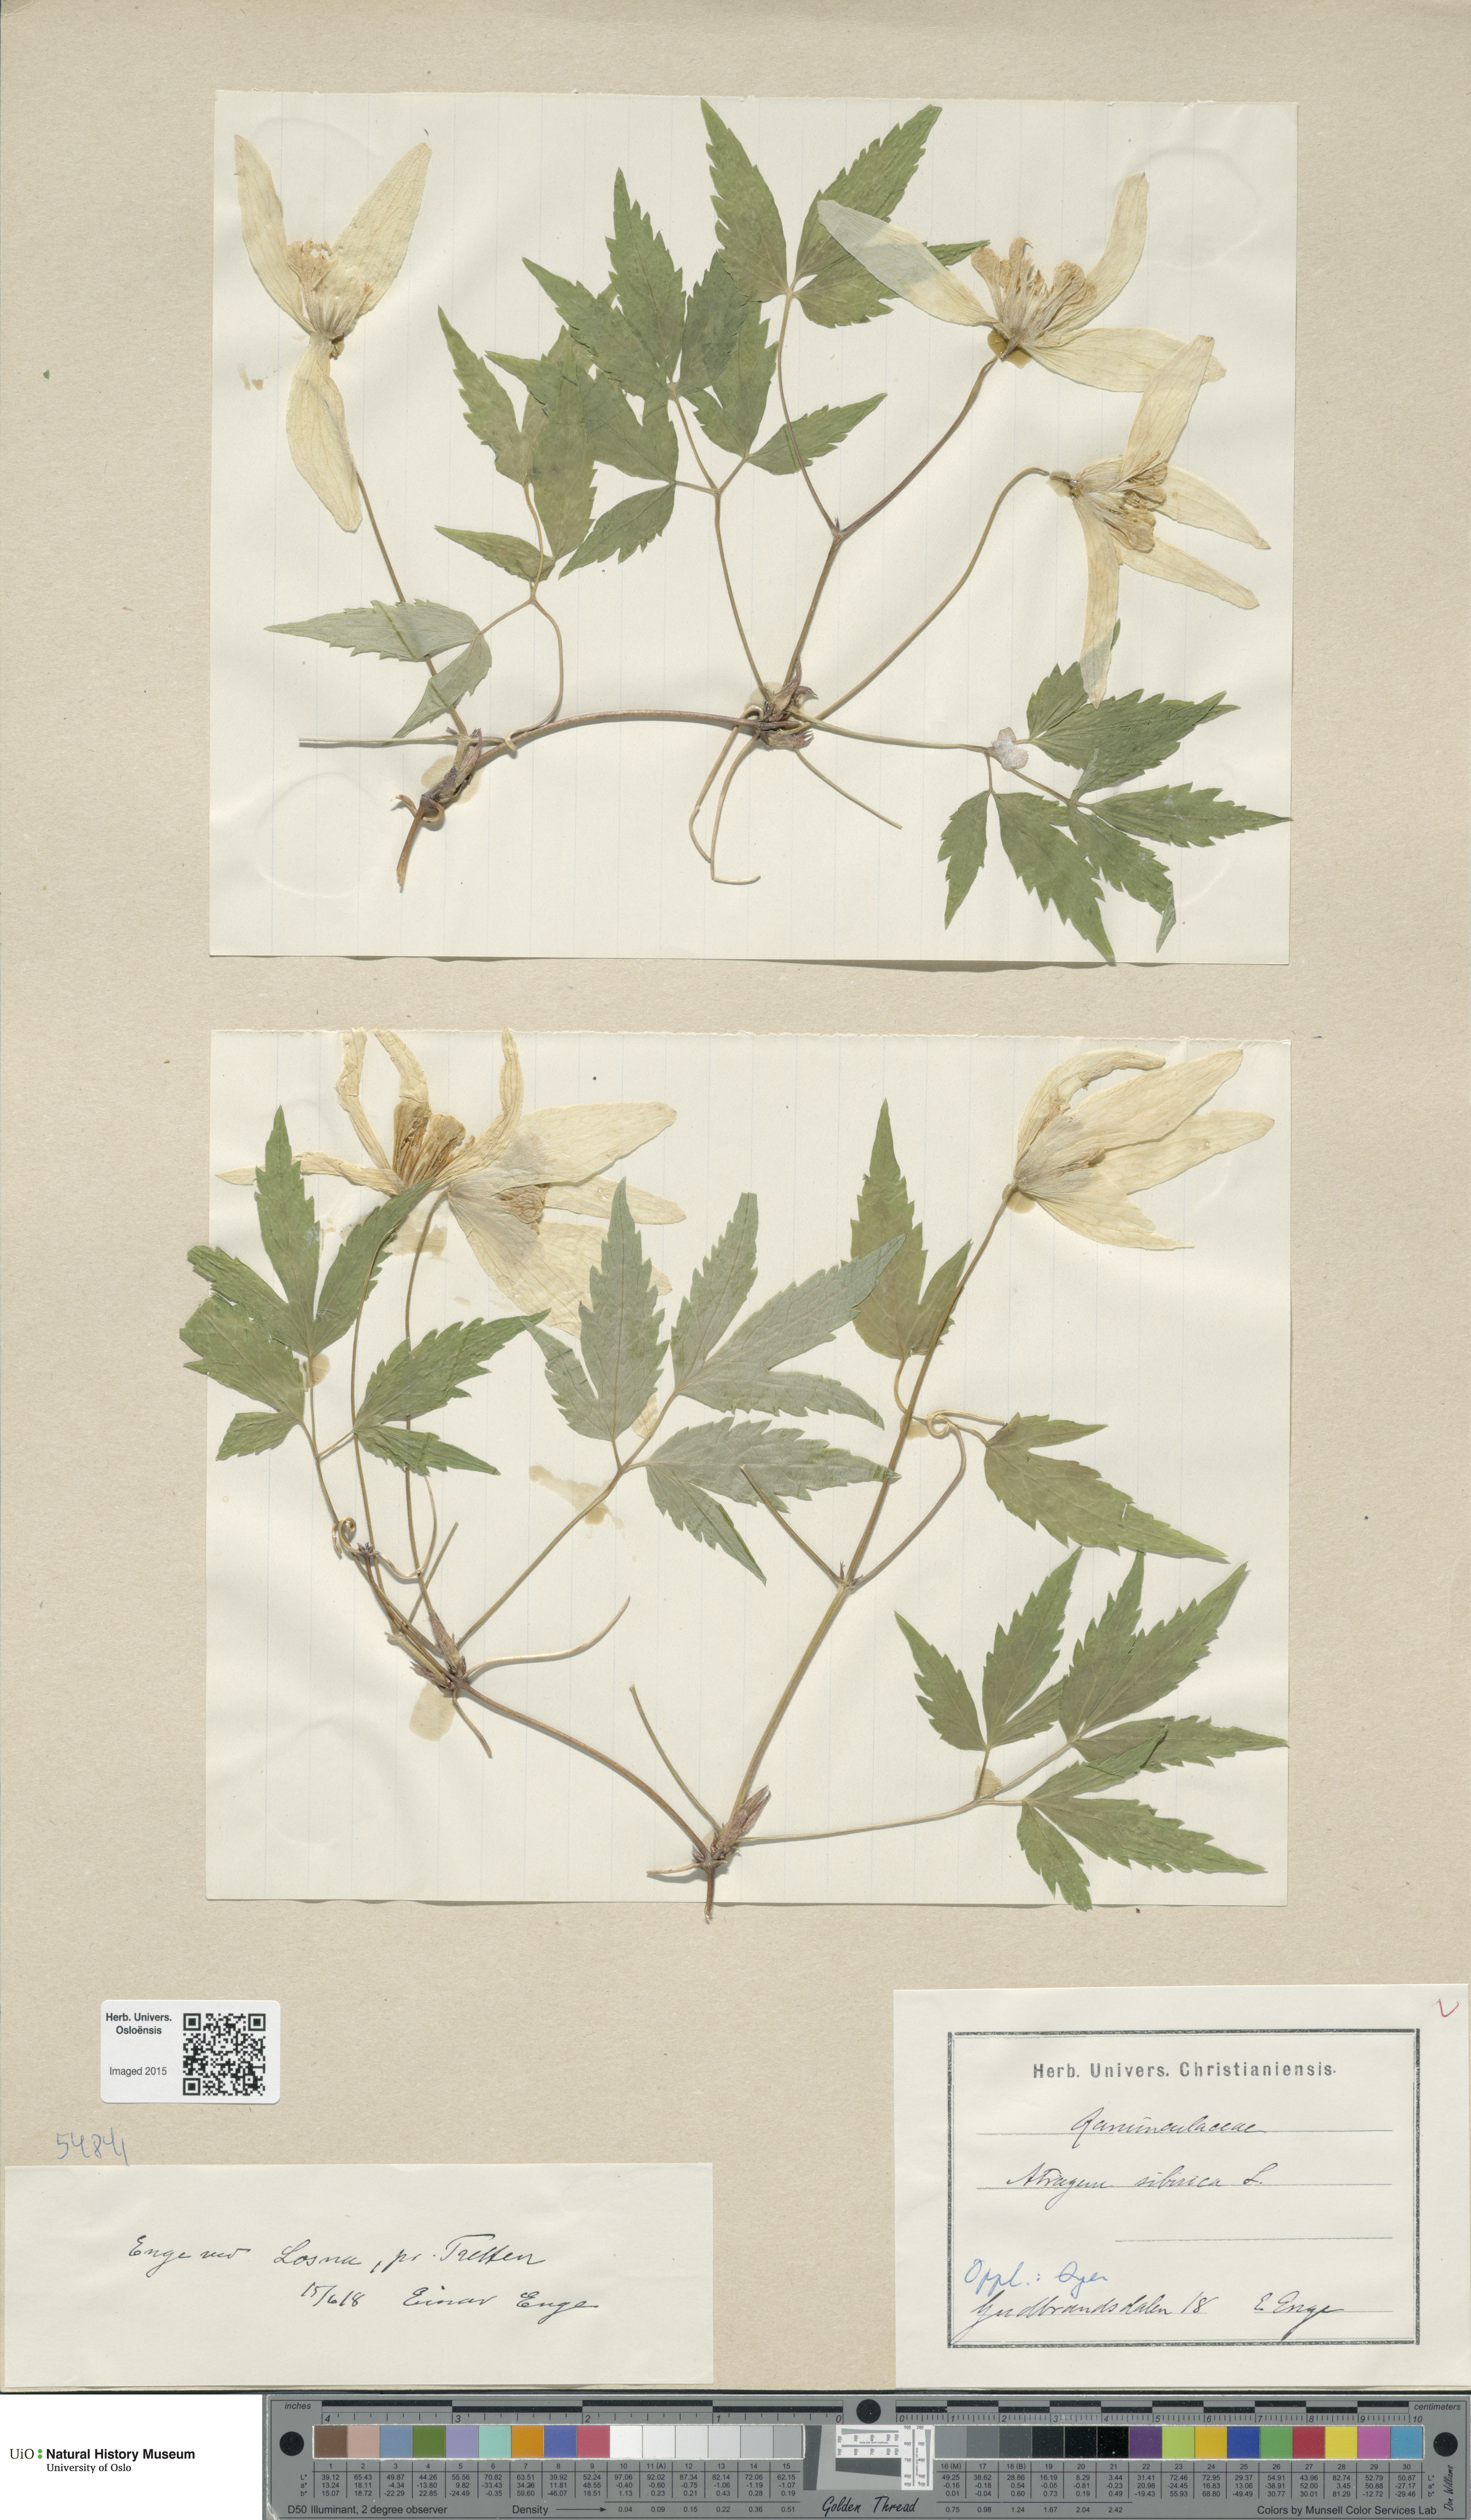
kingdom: Plantae
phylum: Tracheophyta
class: Magnoliopsida
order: Ranunculales
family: Ranunculaceae
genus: Clematis
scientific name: Clematis sibirica
